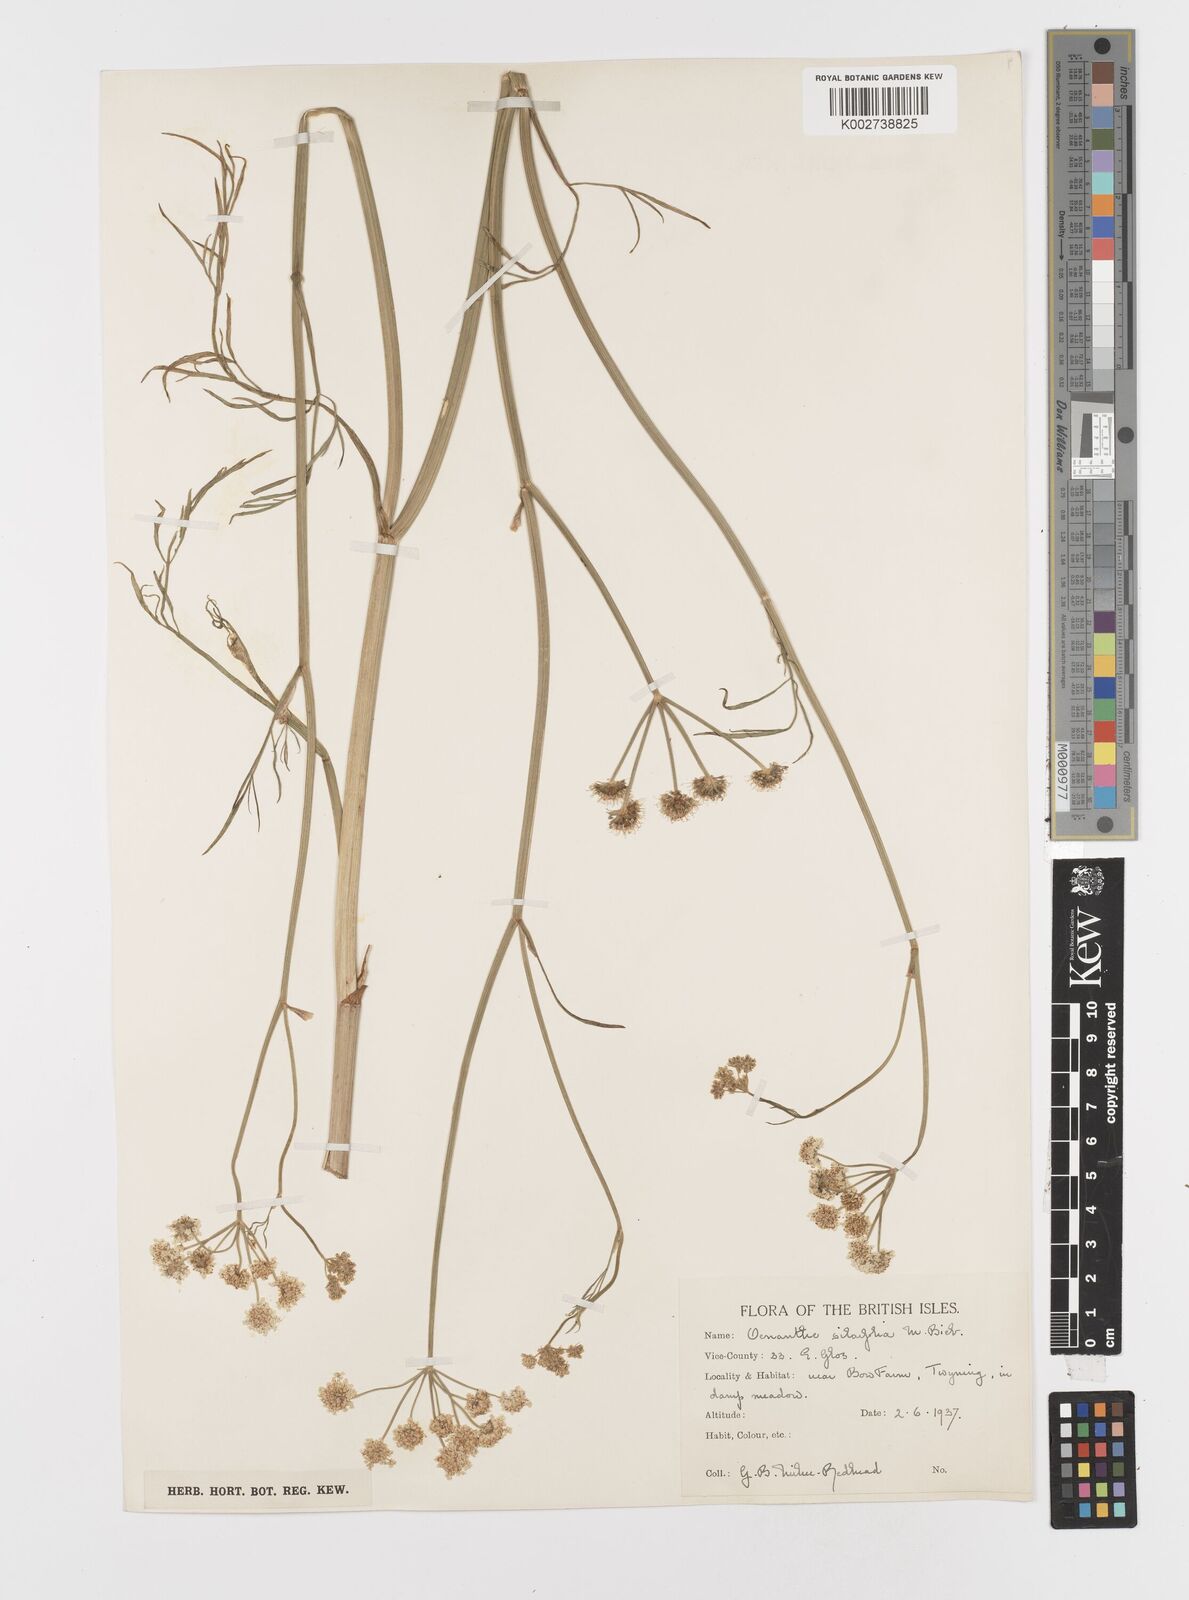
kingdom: Plantae
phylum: Tracheophyta
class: Magnoliopsida
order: Apiales
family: Apiaceae
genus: Oenanthe
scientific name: Oenanthe silaifolia
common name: Narrow-leaved water-dropwort
